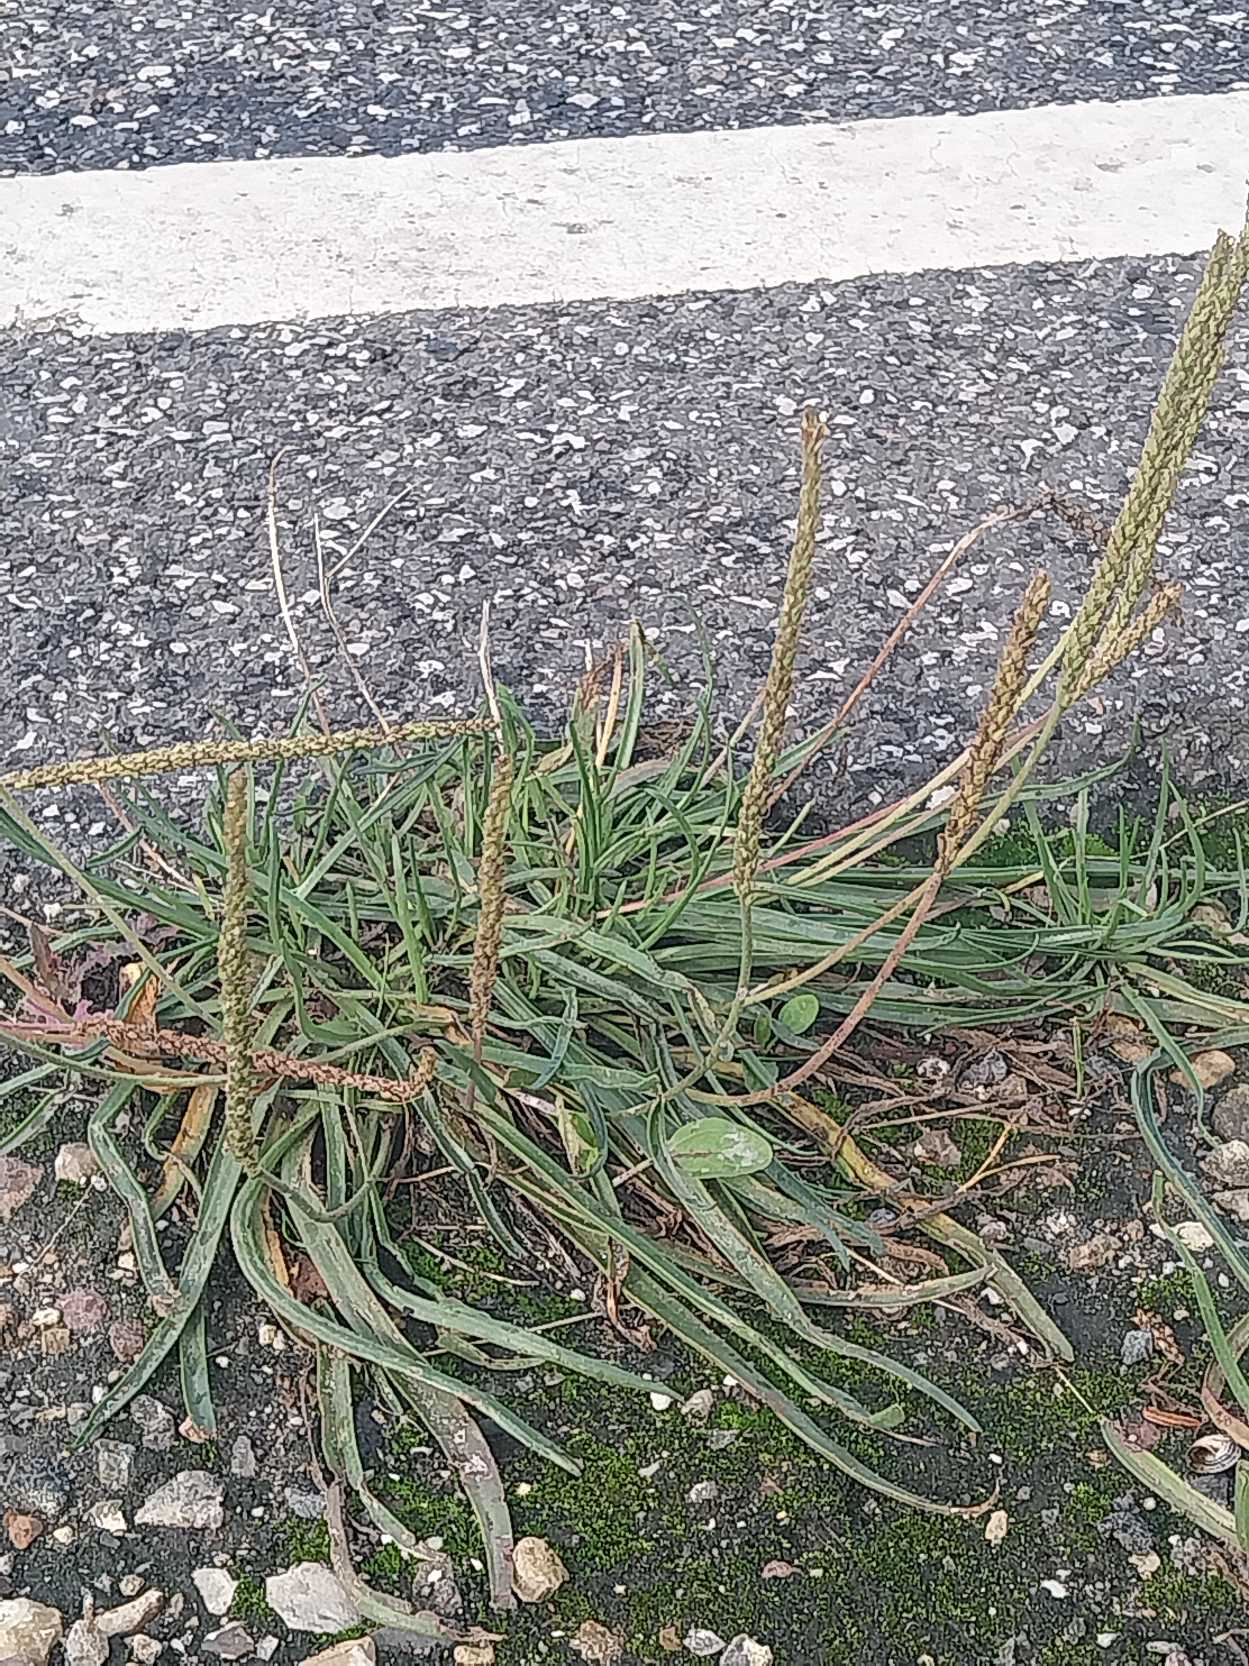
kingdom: Plantae
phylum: Tracheophyta
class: Magnoliopsida
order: Lamiales
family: Plantaginaceae
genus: Plantago
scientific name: Plantago maritima
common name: Strand-vejbred
